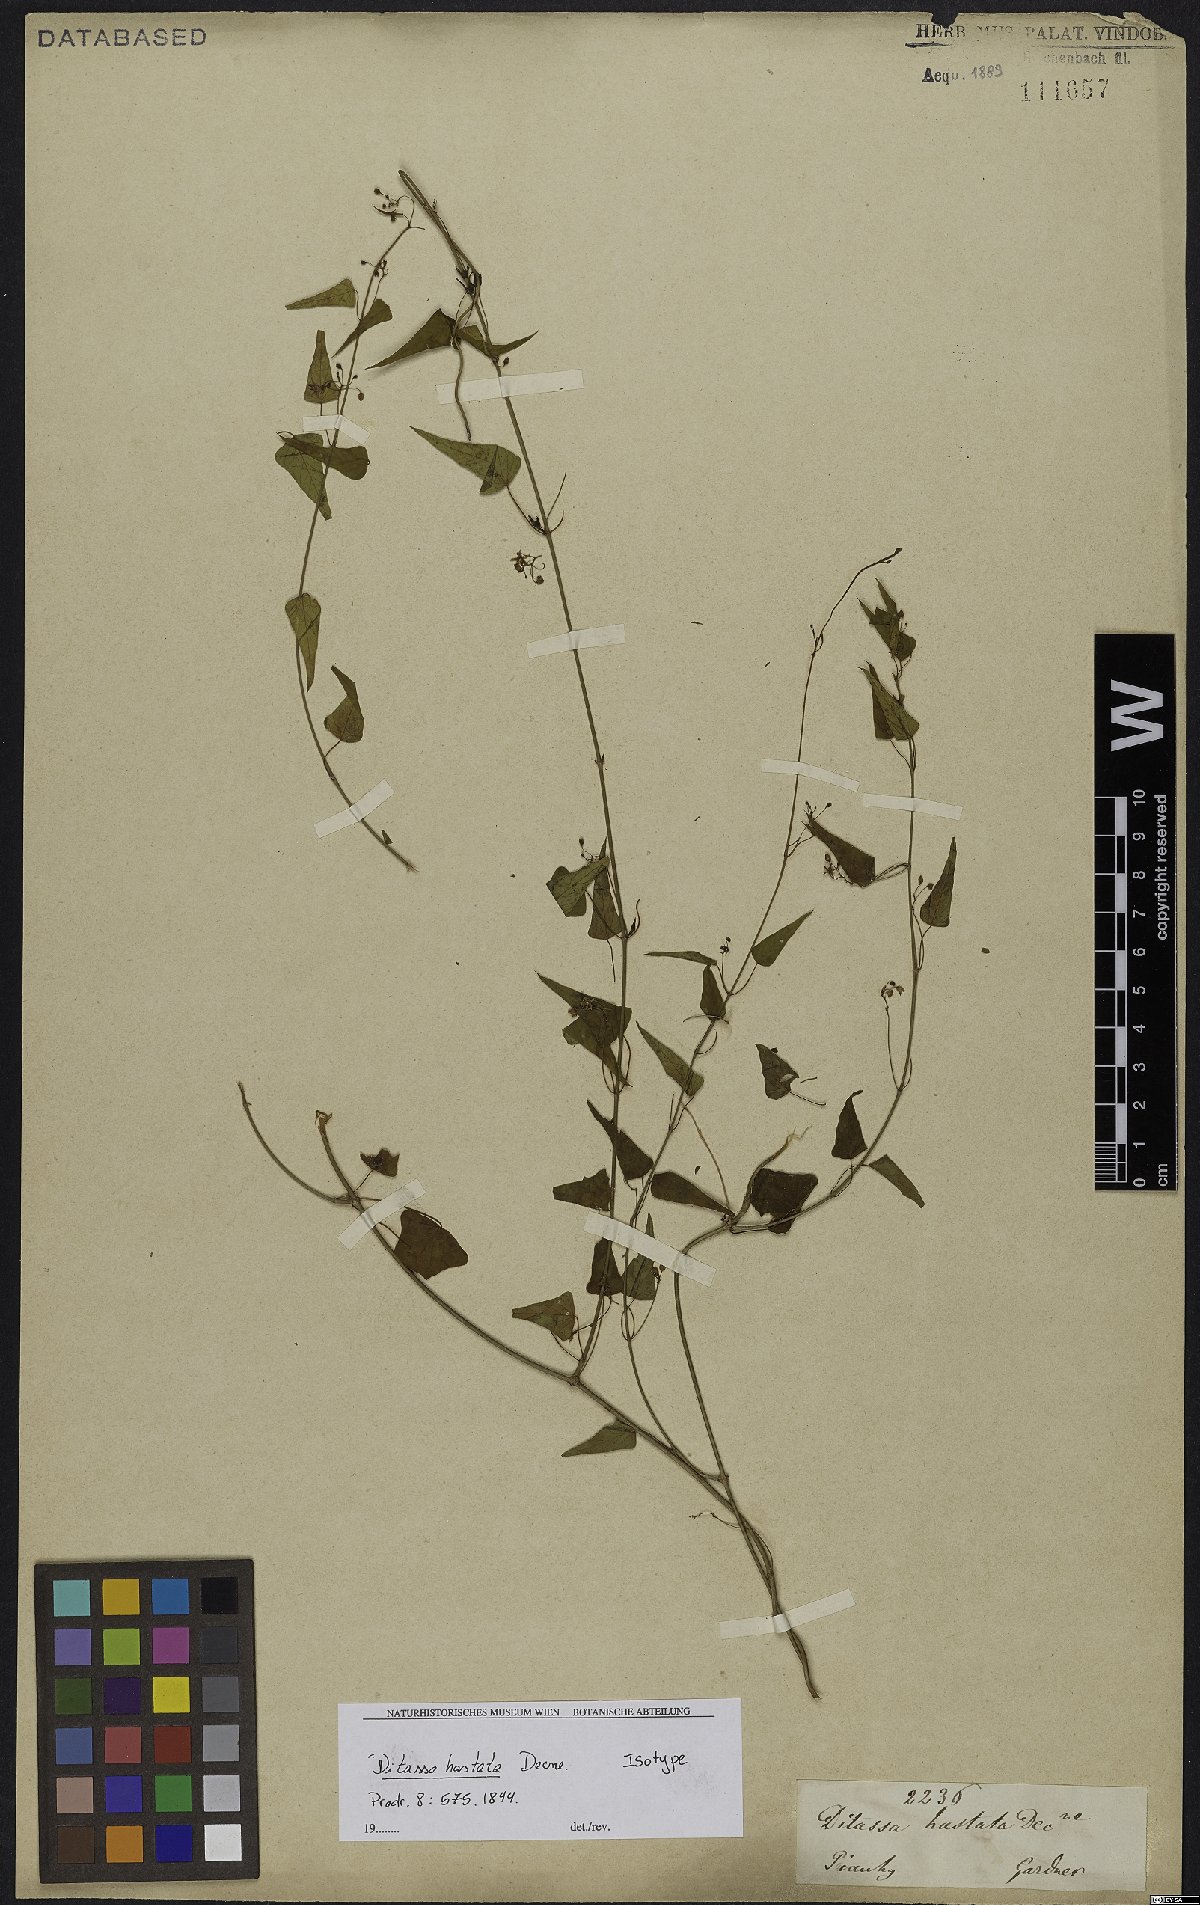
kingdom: Plantae
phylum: Tracheophyta
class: Magnoliopsida
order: Gentianales
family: Apocynaceae
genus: Ditassa
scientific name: Ditassa hastata
